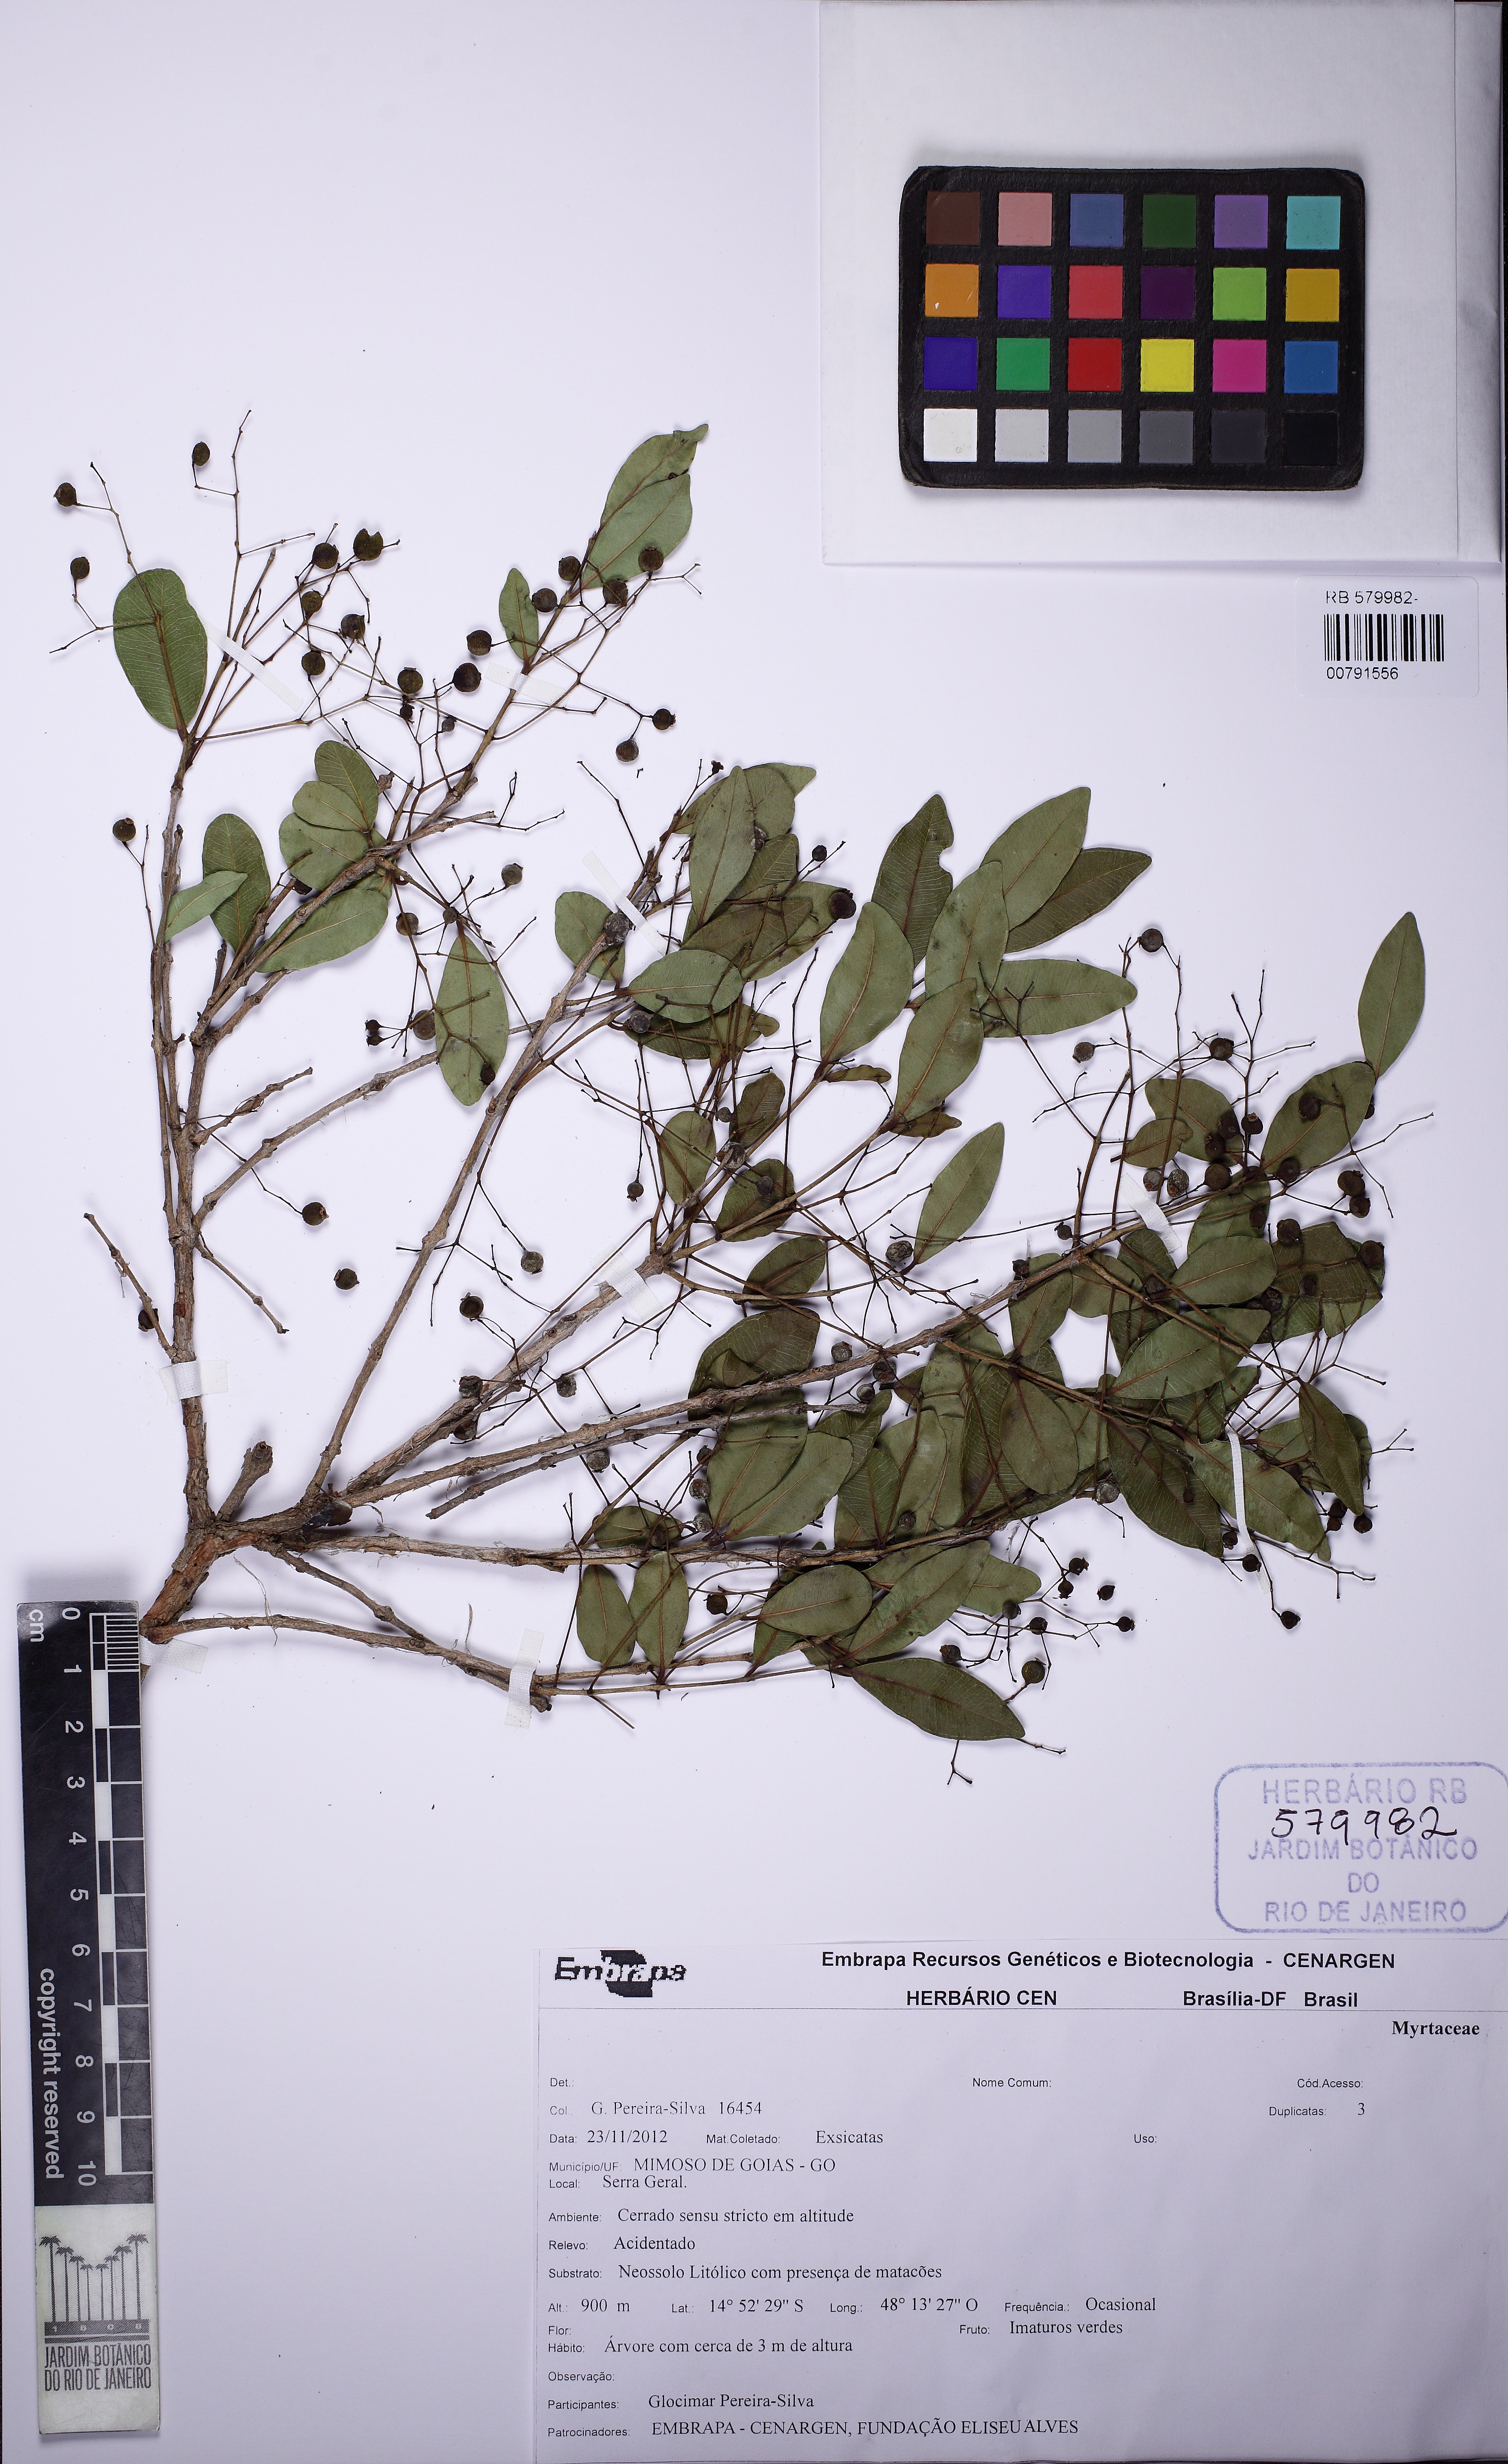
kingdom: Plantae
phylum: Tracheophyta
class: Magnoliopsida
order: Myrtales
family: Myrtaceae
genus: Myrcia
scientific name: Myrcia multiflora
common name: Pedra hume
